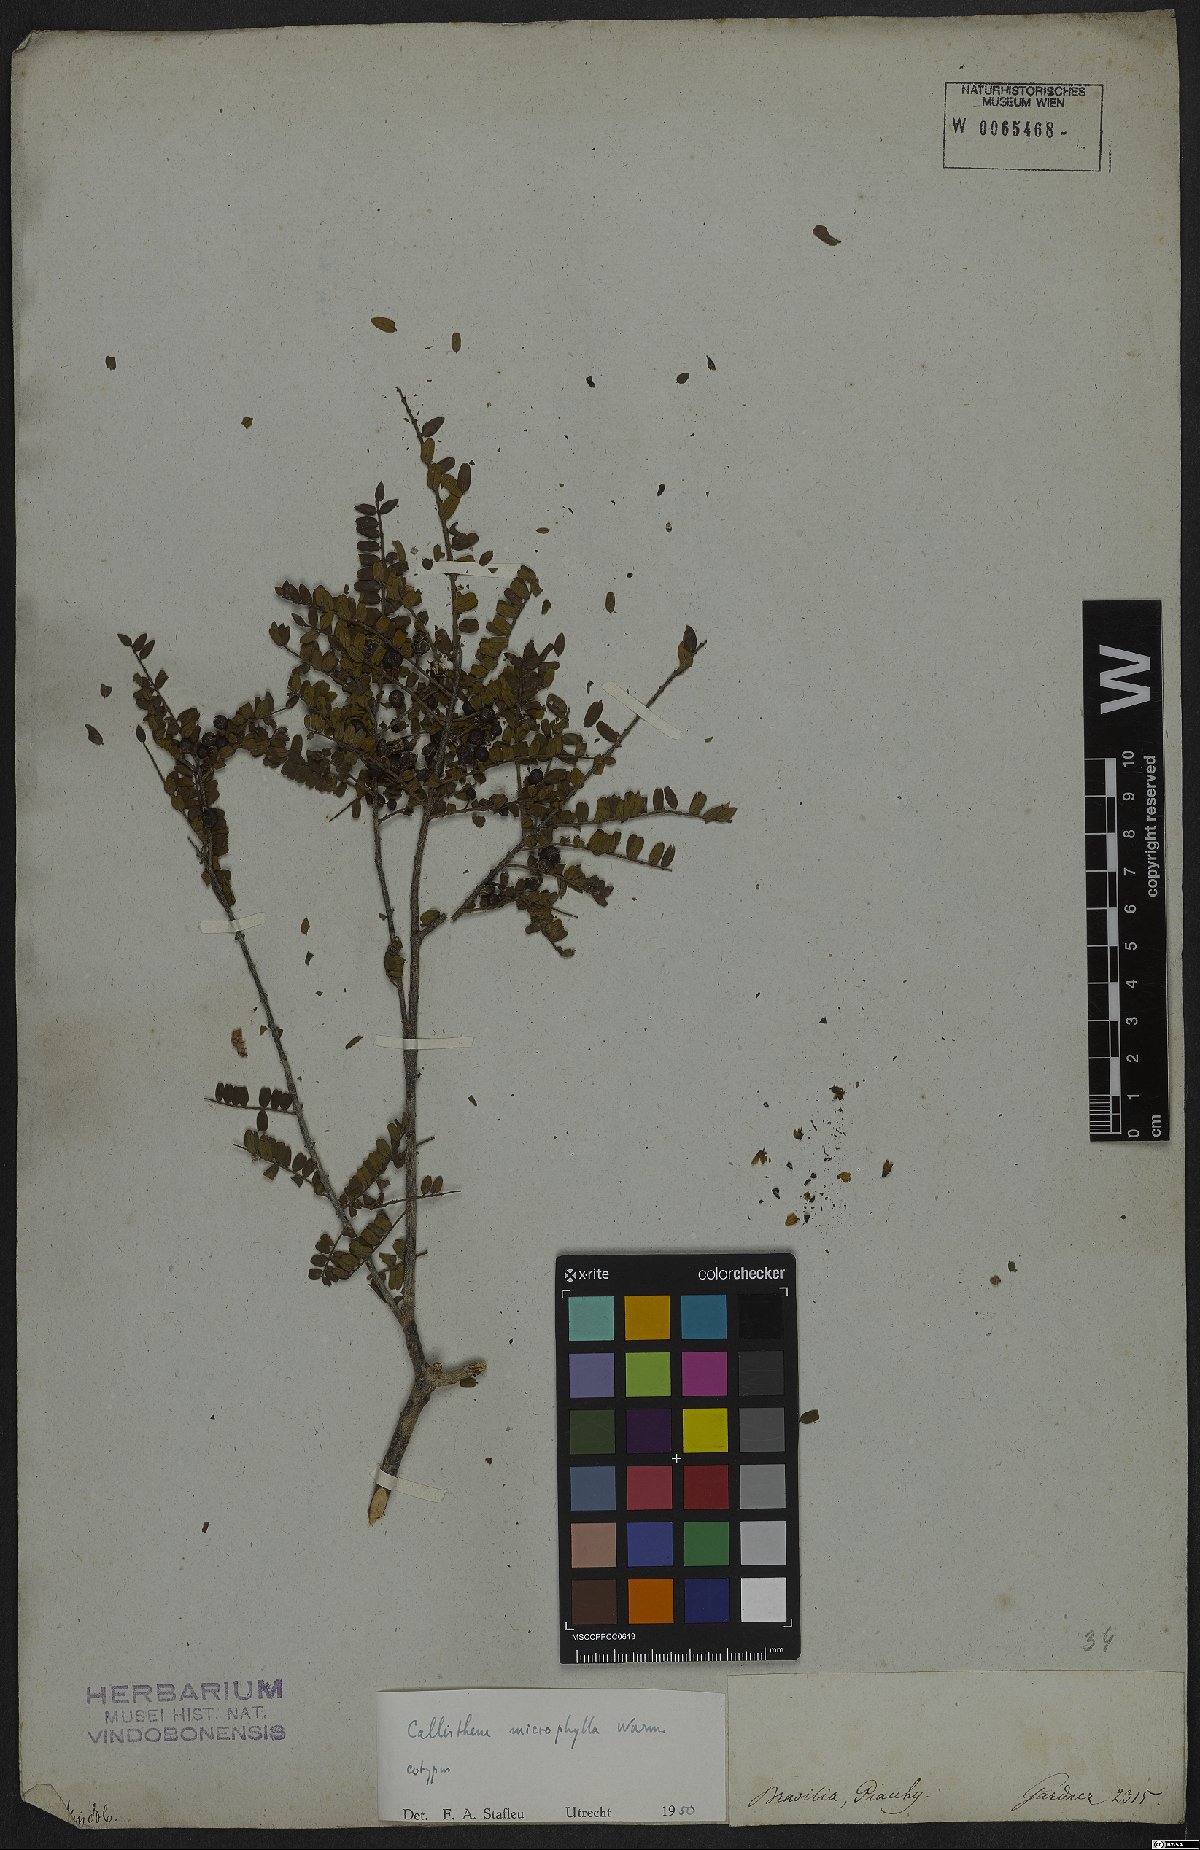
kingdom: Plantae
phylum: Tracheophyta
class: Magnoliopsida
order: Myrtales
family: Vochysiaceae
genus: Callisthene
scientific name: Callisthene microphylla
